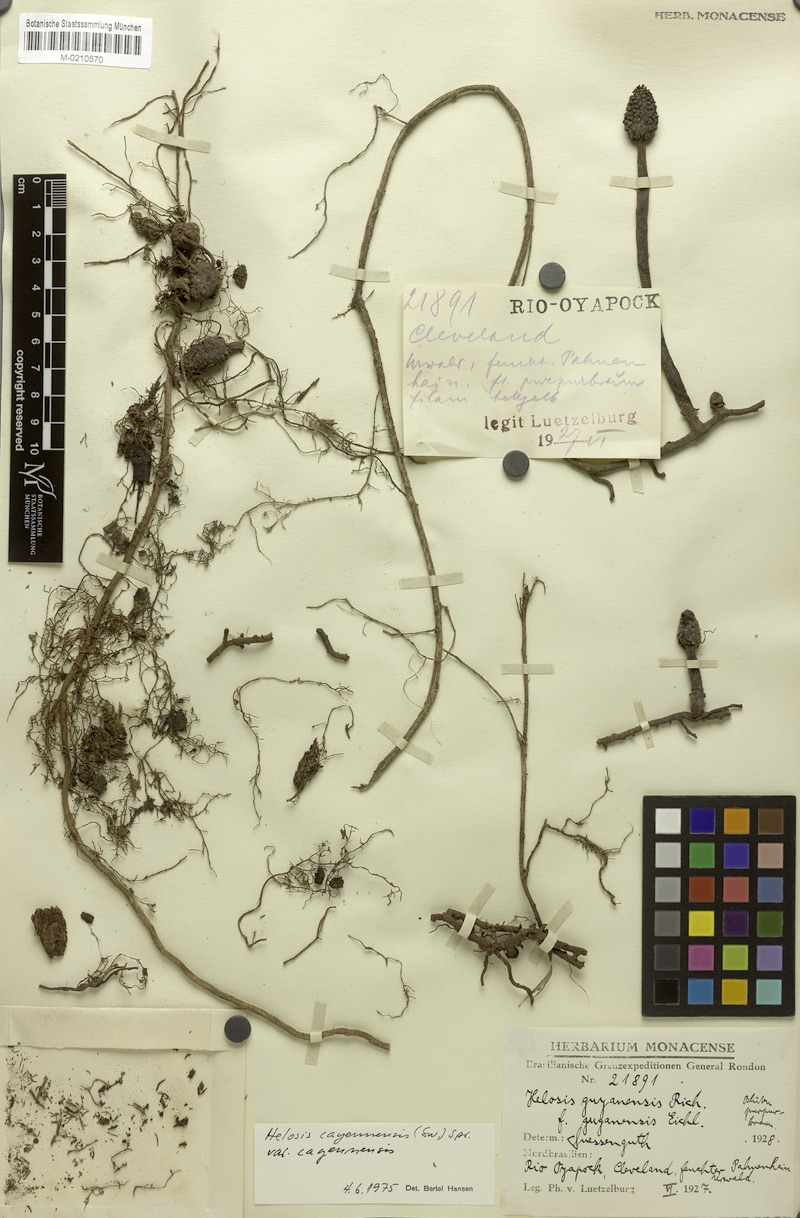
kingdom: Plantae
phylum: Tracheophyta
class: Magnoliopsida
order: Santalales
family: Balanophoraceae
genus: Helosis
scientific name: Helosis cayennensis
